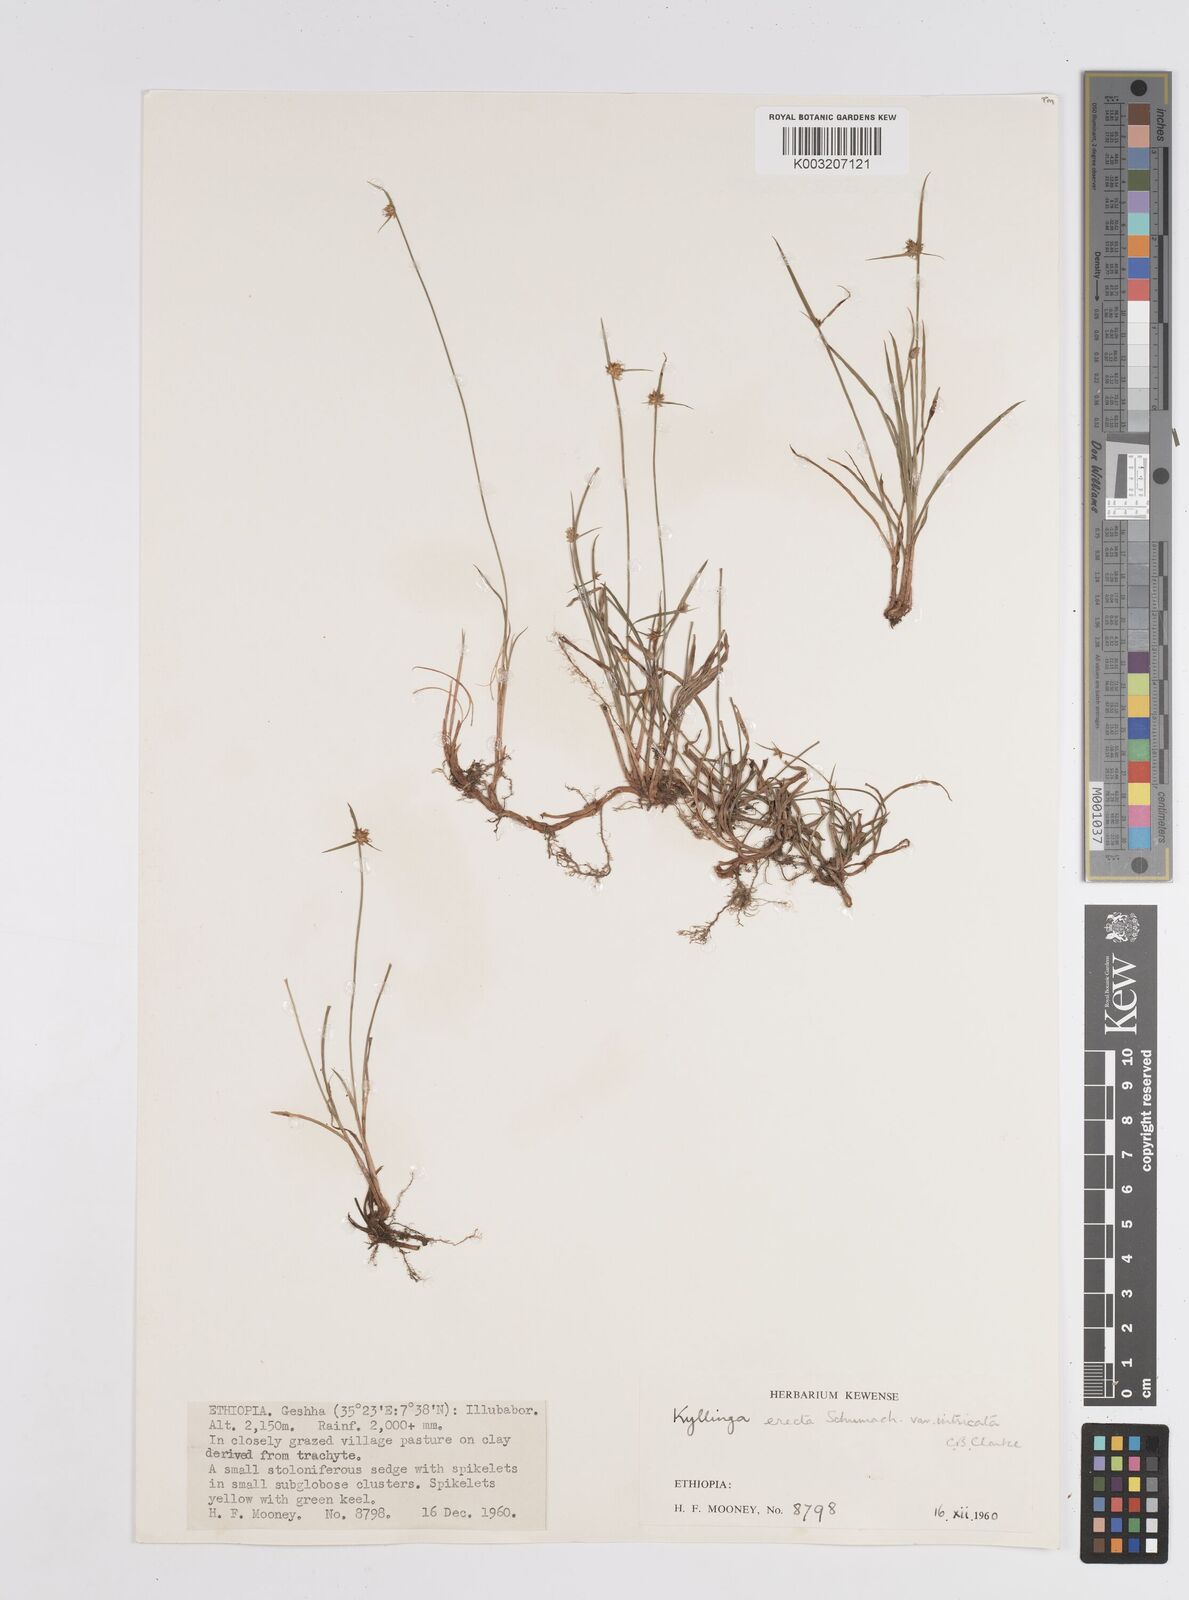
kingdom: Plantae
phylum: Tracheophyta
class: Liliopsida
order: Poales
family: Cyperaceae
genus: Cyperus
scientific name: Cyperus
